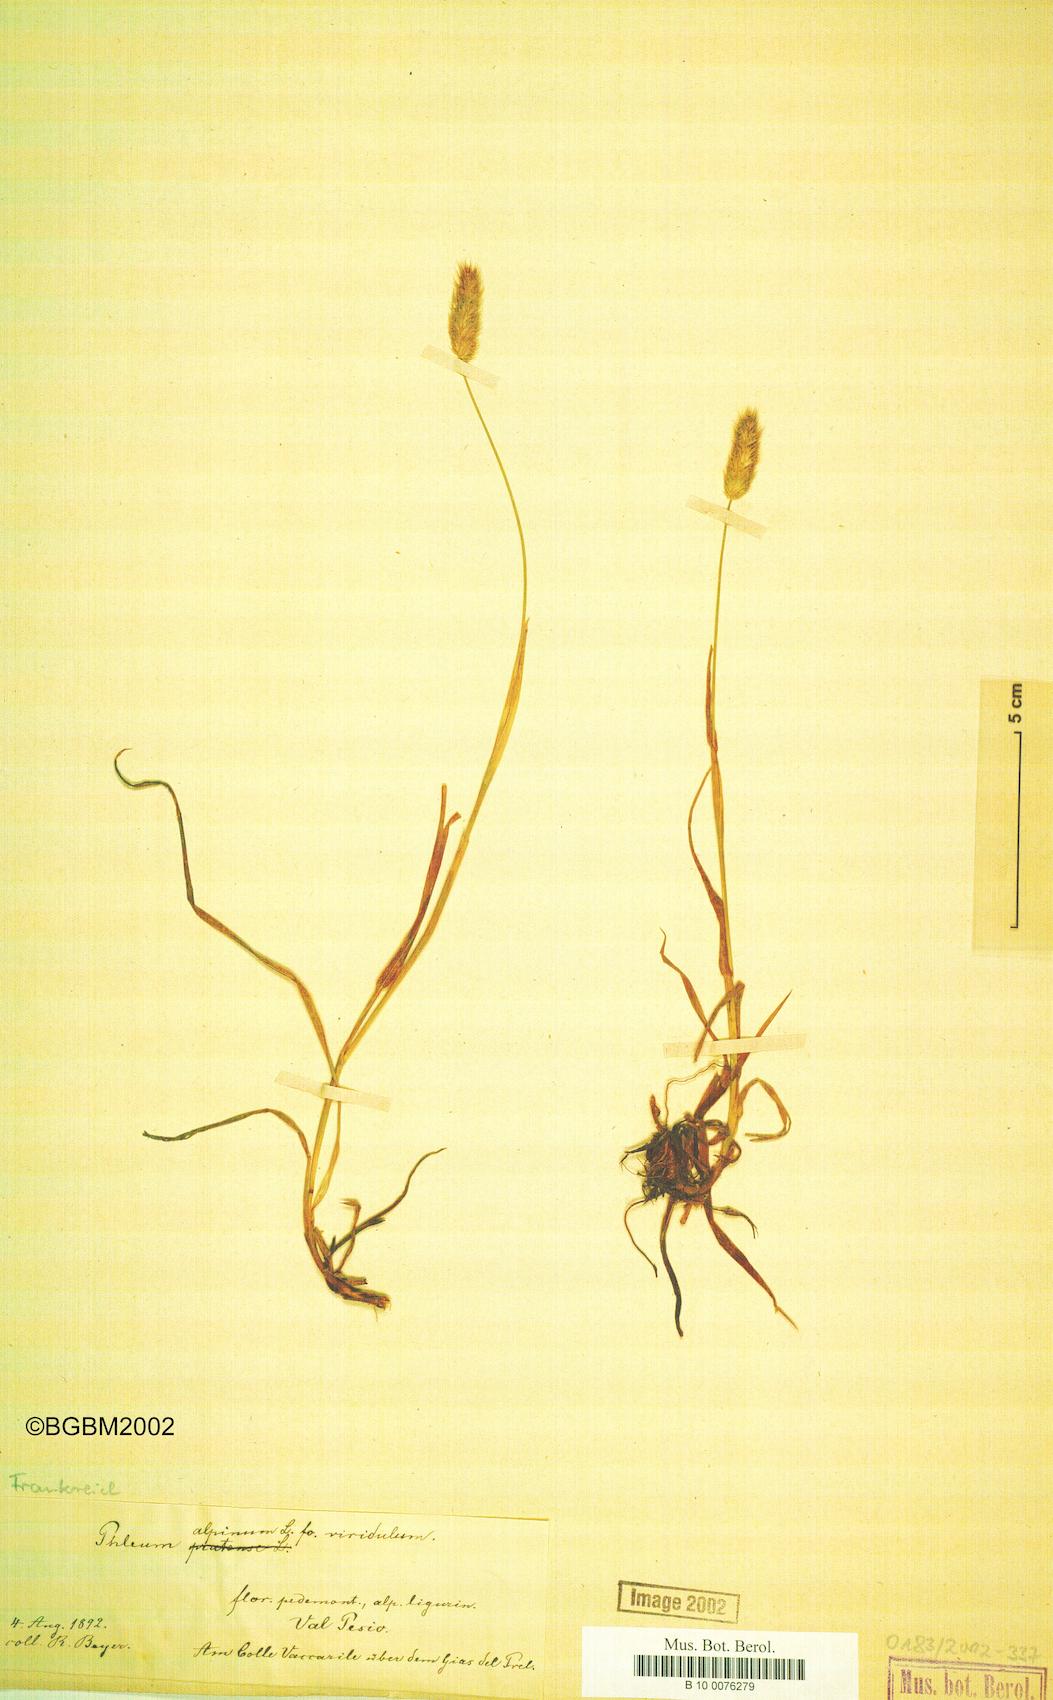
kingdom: Plantae
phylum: Tracheophyta
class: Liliopsida
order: Poales
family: Poaceae
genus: Phleum
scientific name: Phleum alpinum
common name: Alpine cat's-tail
